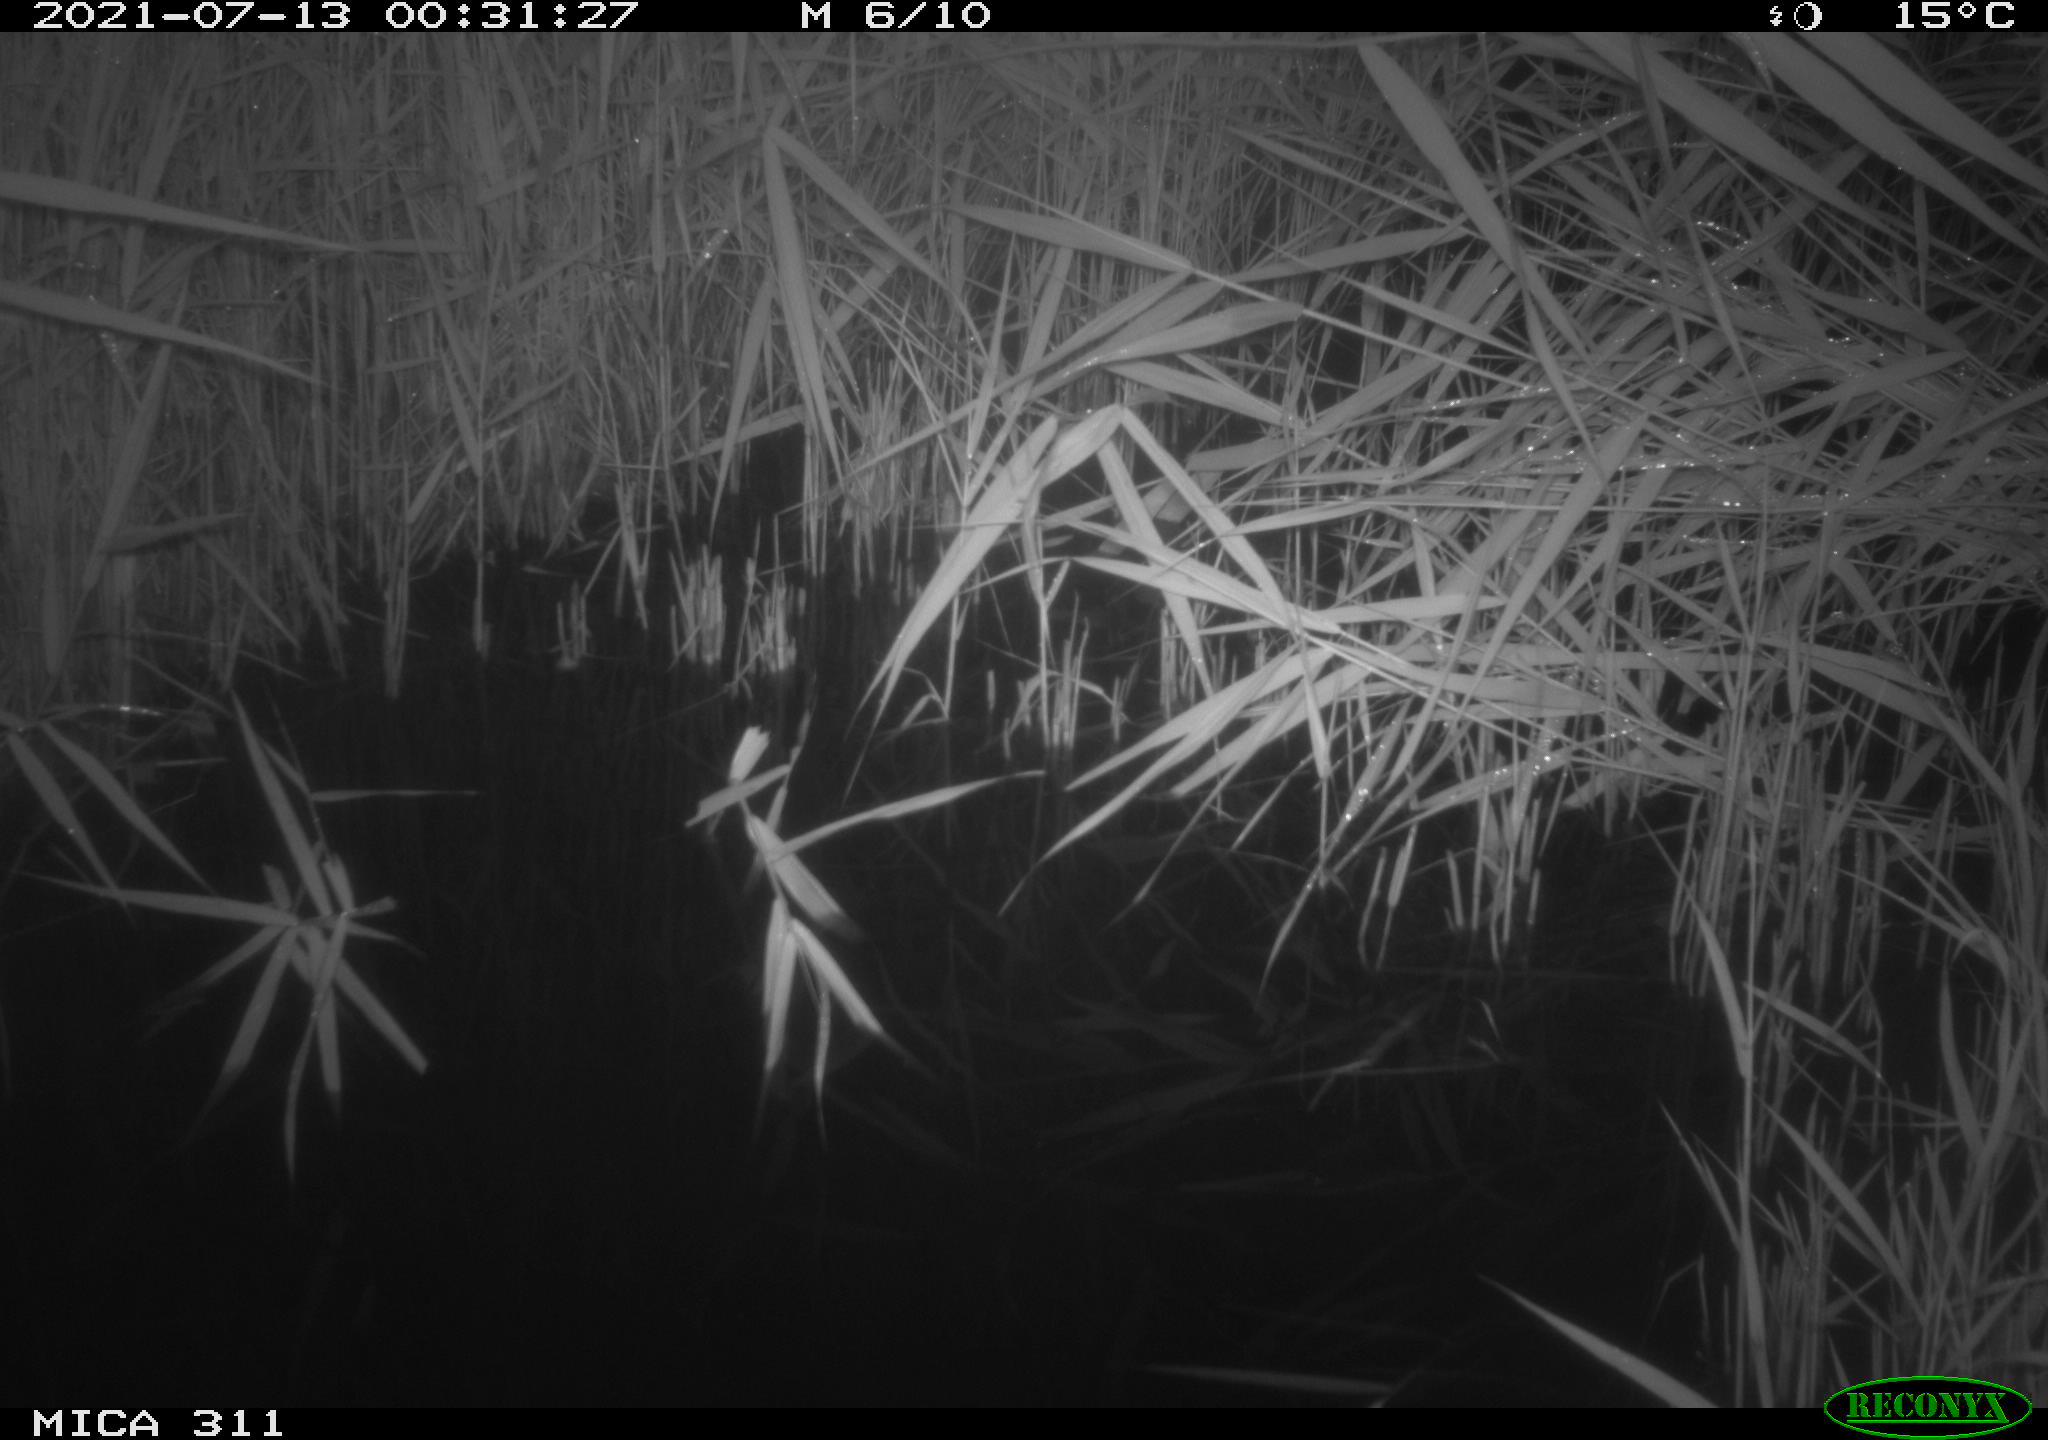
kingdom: Animalia
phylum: Chordata
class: Mammalia
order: Rodentia
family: Muridae
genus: Rattus
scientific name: Rattus norvegicus
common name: Brown rat
